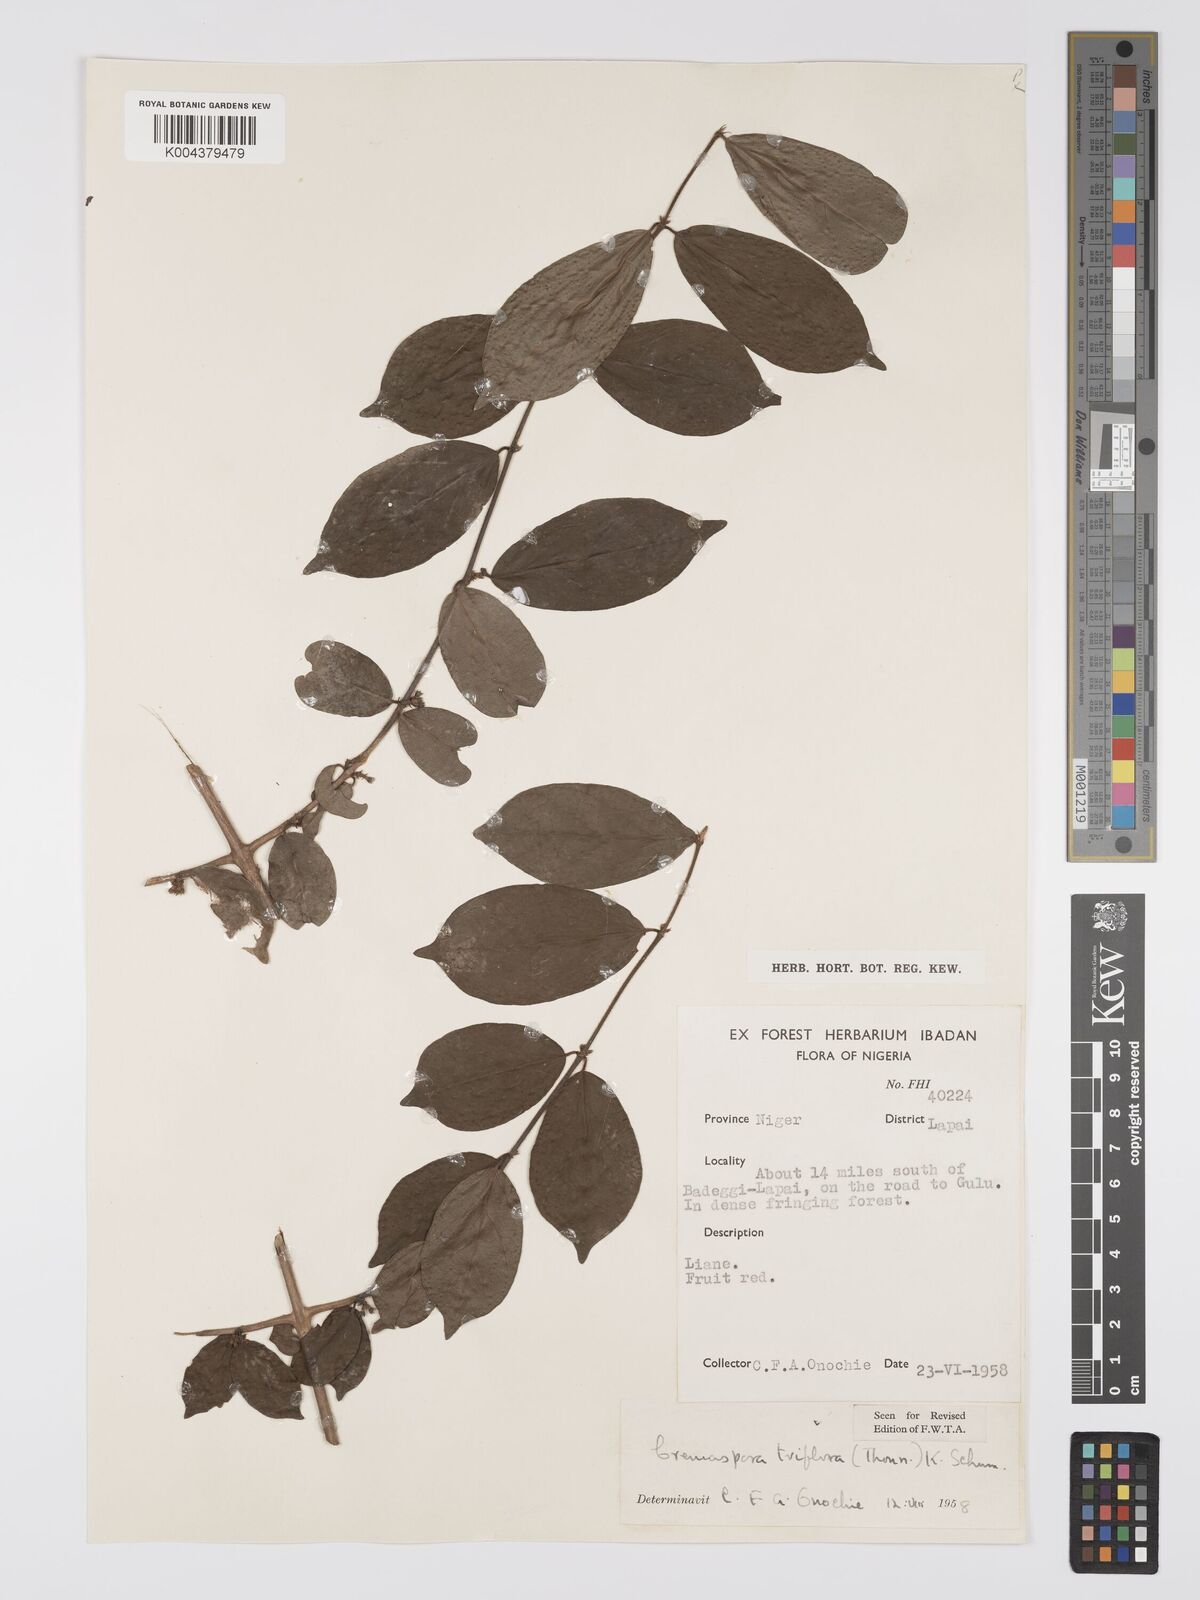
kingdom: Plantae
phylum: Tracheophyta
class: Magnoliopsida
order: Gentianales
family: Rubiaceae
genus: Cremaspora
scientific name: Cremaspora triflora
